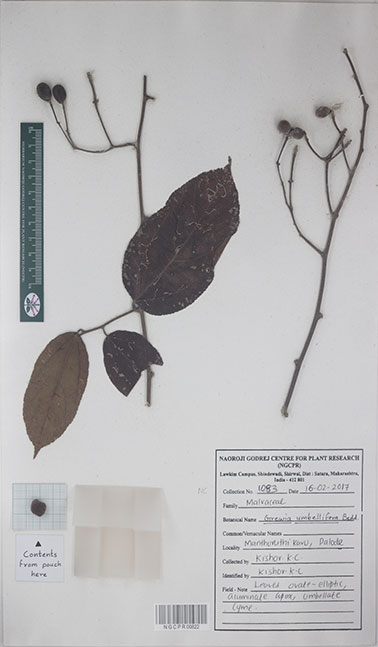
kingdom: Plantae
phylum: Tracheophyta
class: Magnoliopsida
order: Malvales
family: Malvaceae
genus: Grewia
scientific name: Grewia umbellifera
